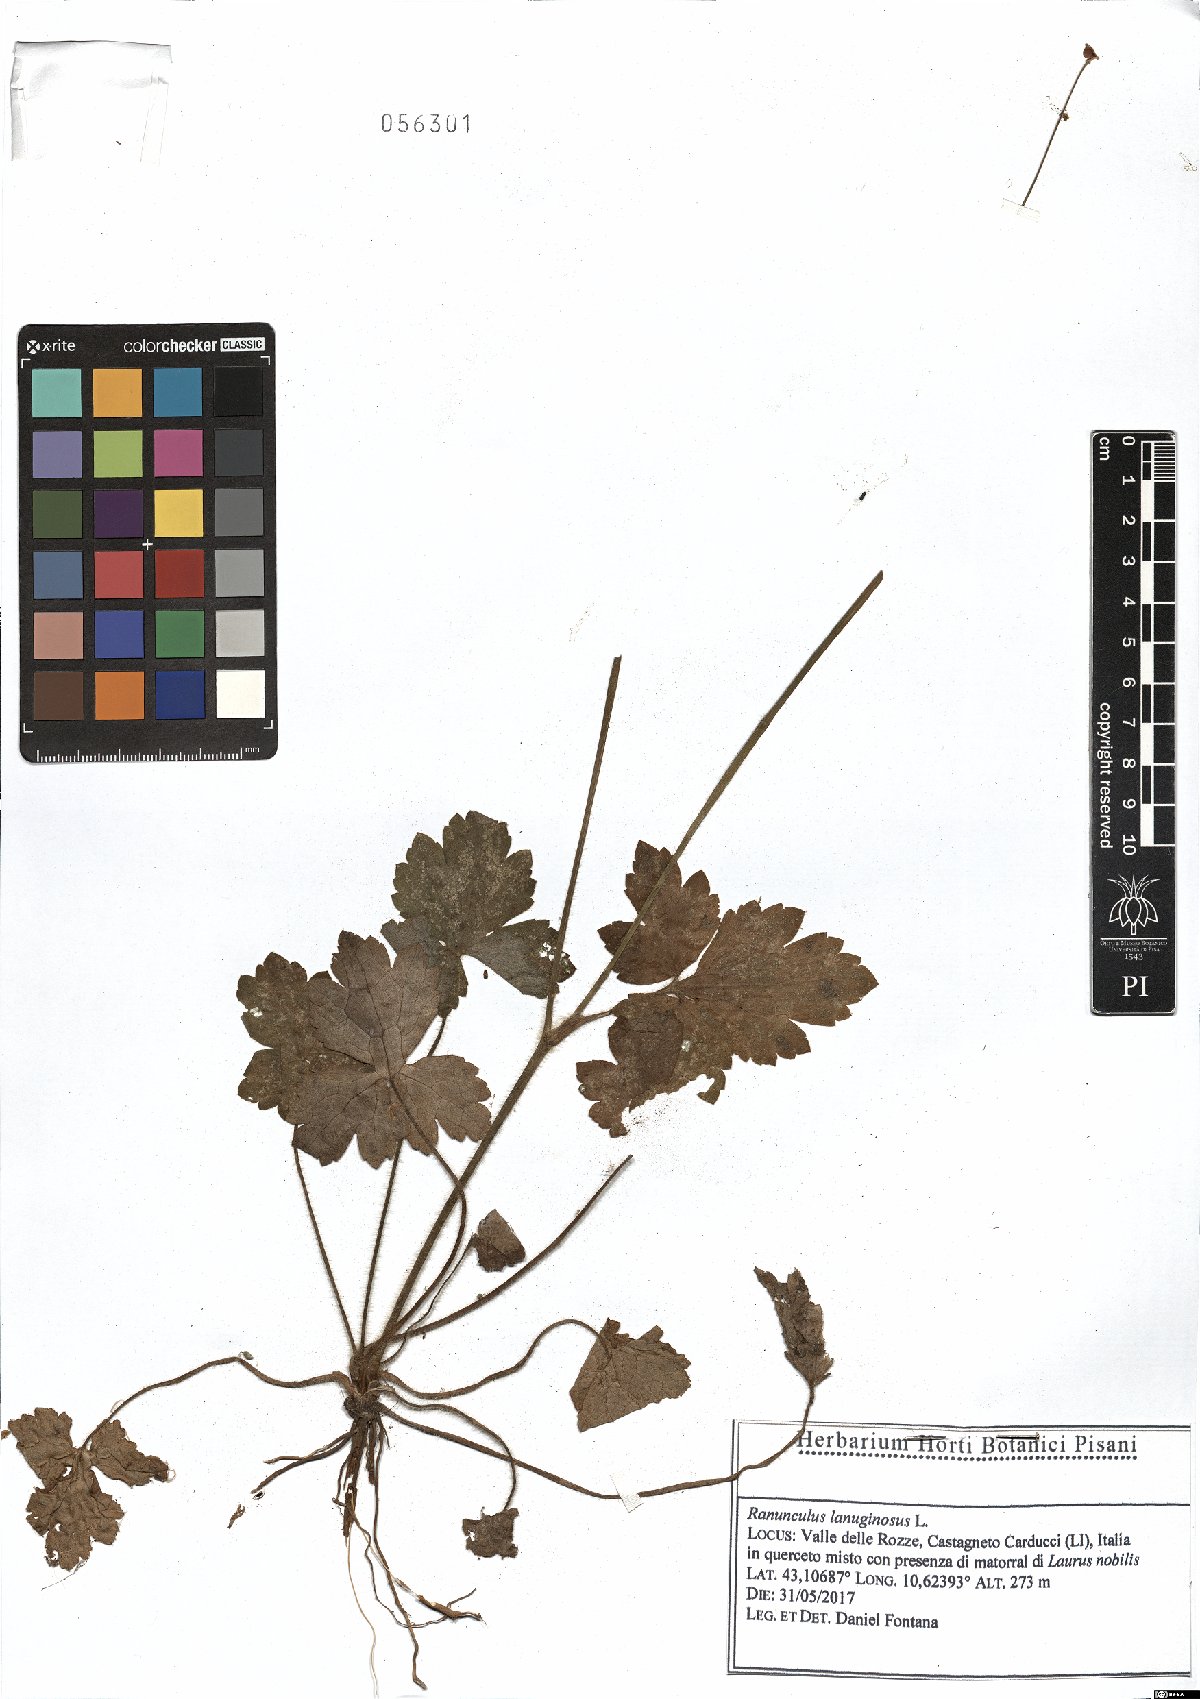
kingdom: Plantae
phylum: Tracheophyta
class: Magnoliopsida
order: Ranunculales
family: Ranunculaceae
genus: Ranunculus
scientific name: Ranunculus lanuginosus
